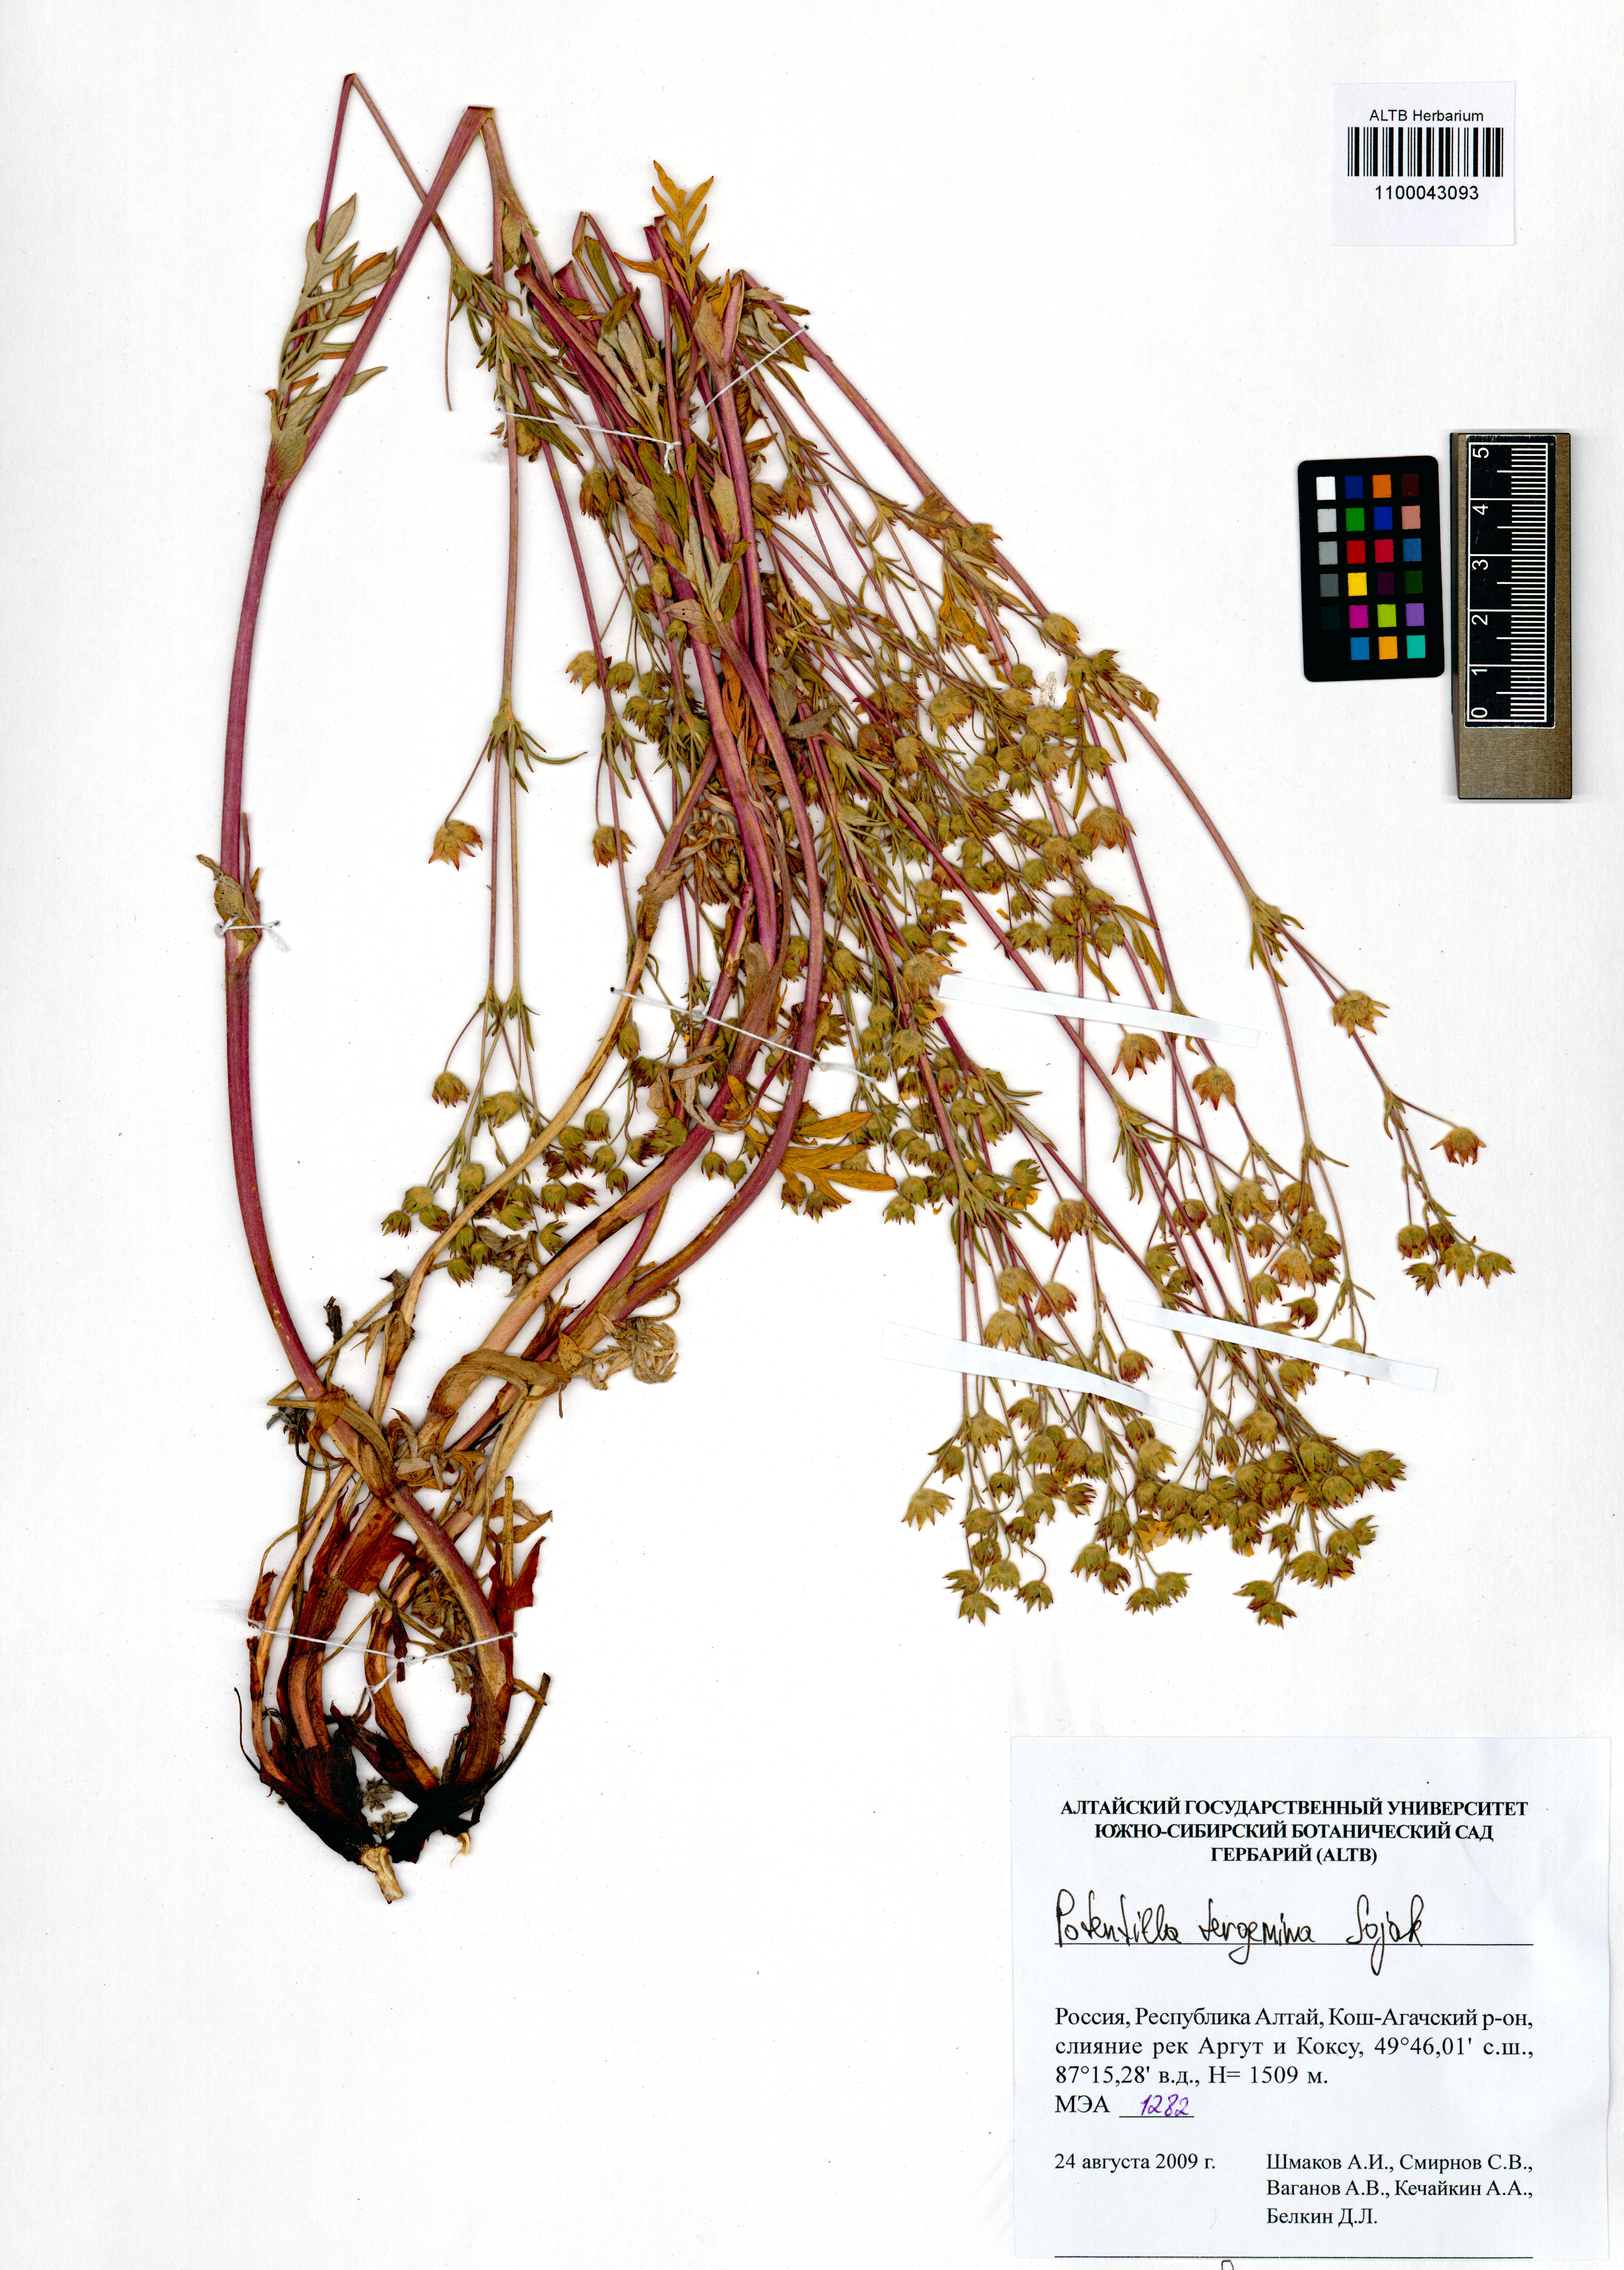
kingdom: Plantae
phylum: Tracheophyta
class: Magnoliopsida
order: Rosales
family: Rosaceae
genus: Potentilla
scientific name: Potentilla tergemina
